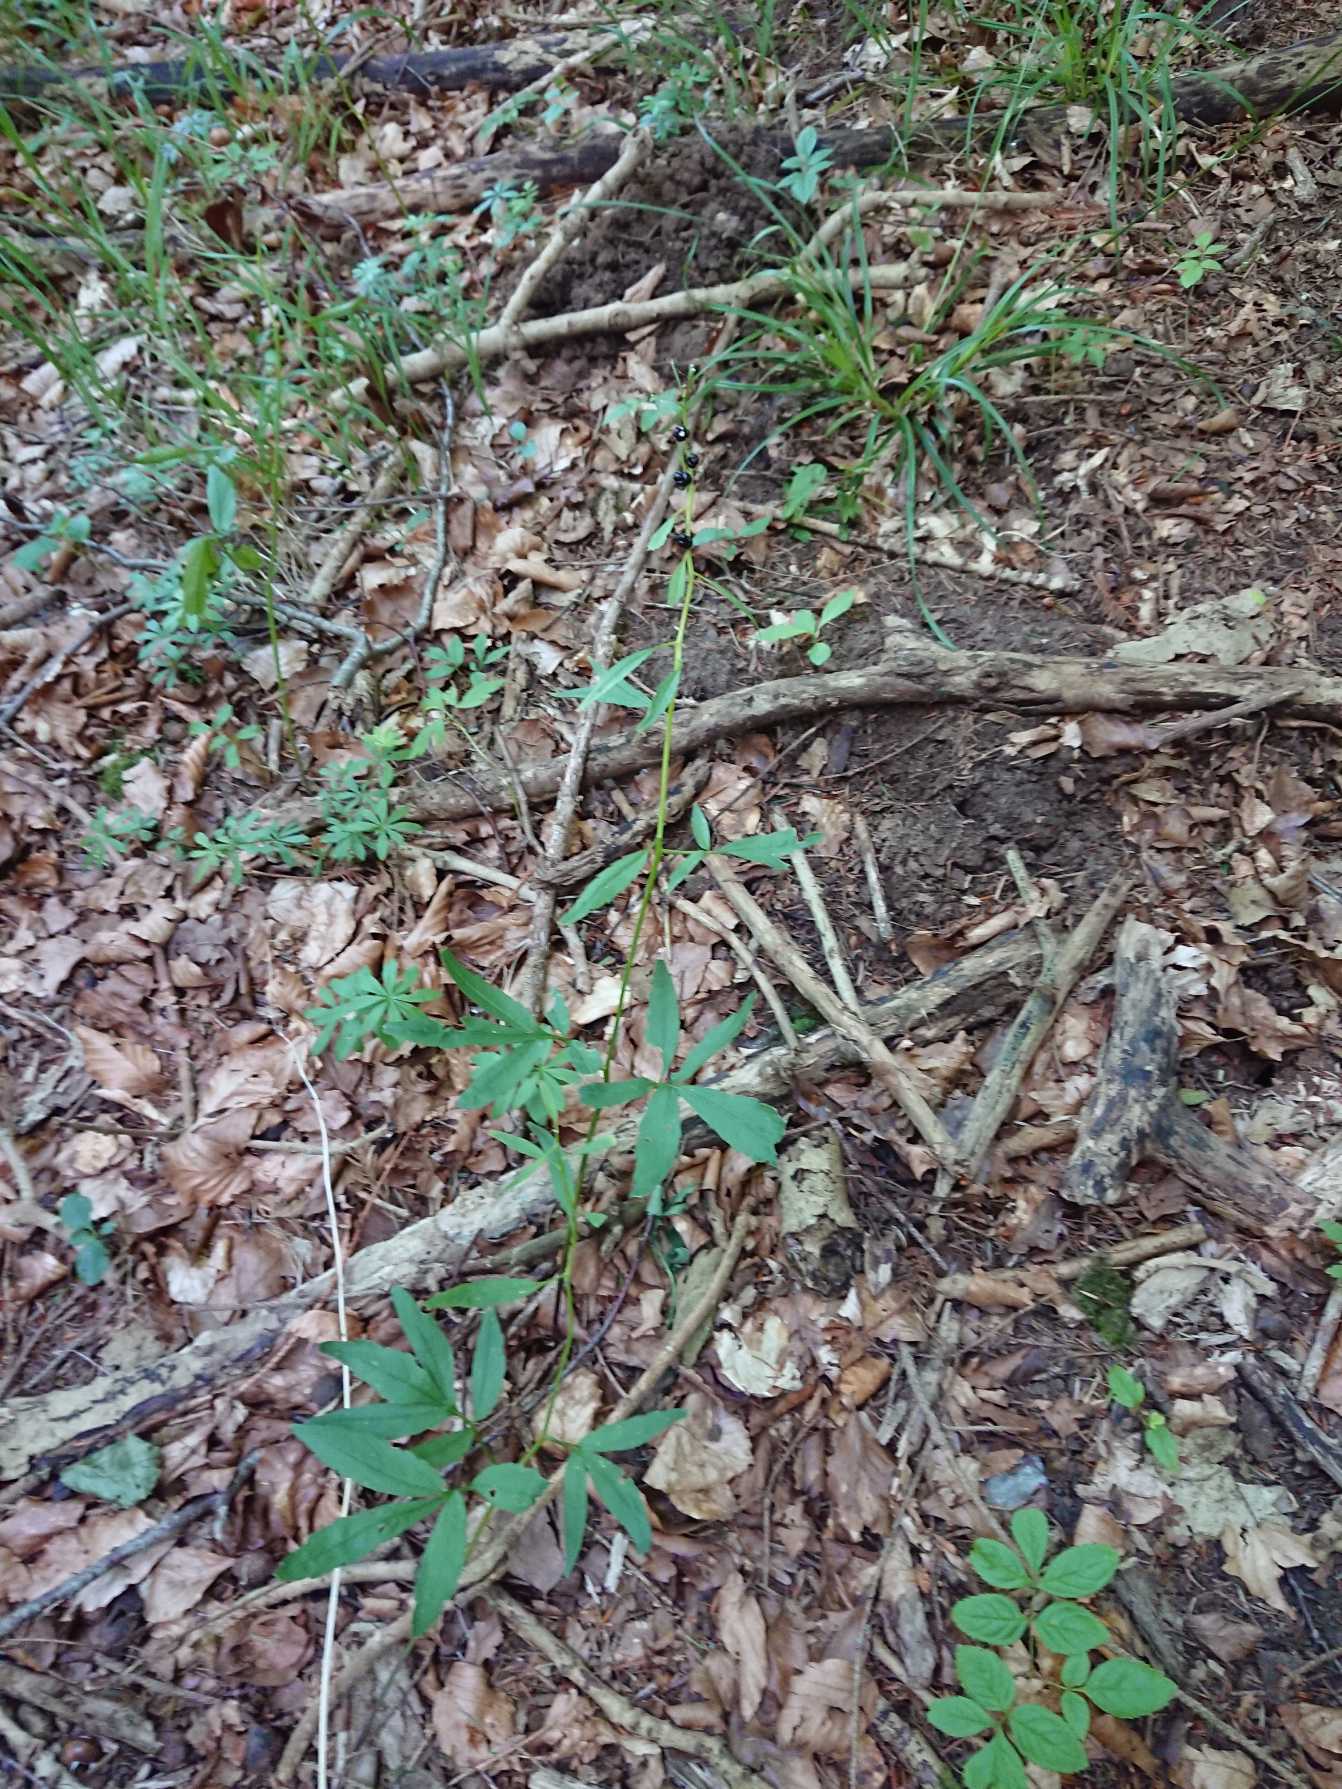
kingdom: Plantae
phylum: Tracheophyta
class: Magnoliopsida
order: Brassicales
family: Brassicaceae
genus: Cardamine
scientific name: Cardamine bulbifera
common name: Tandrod
